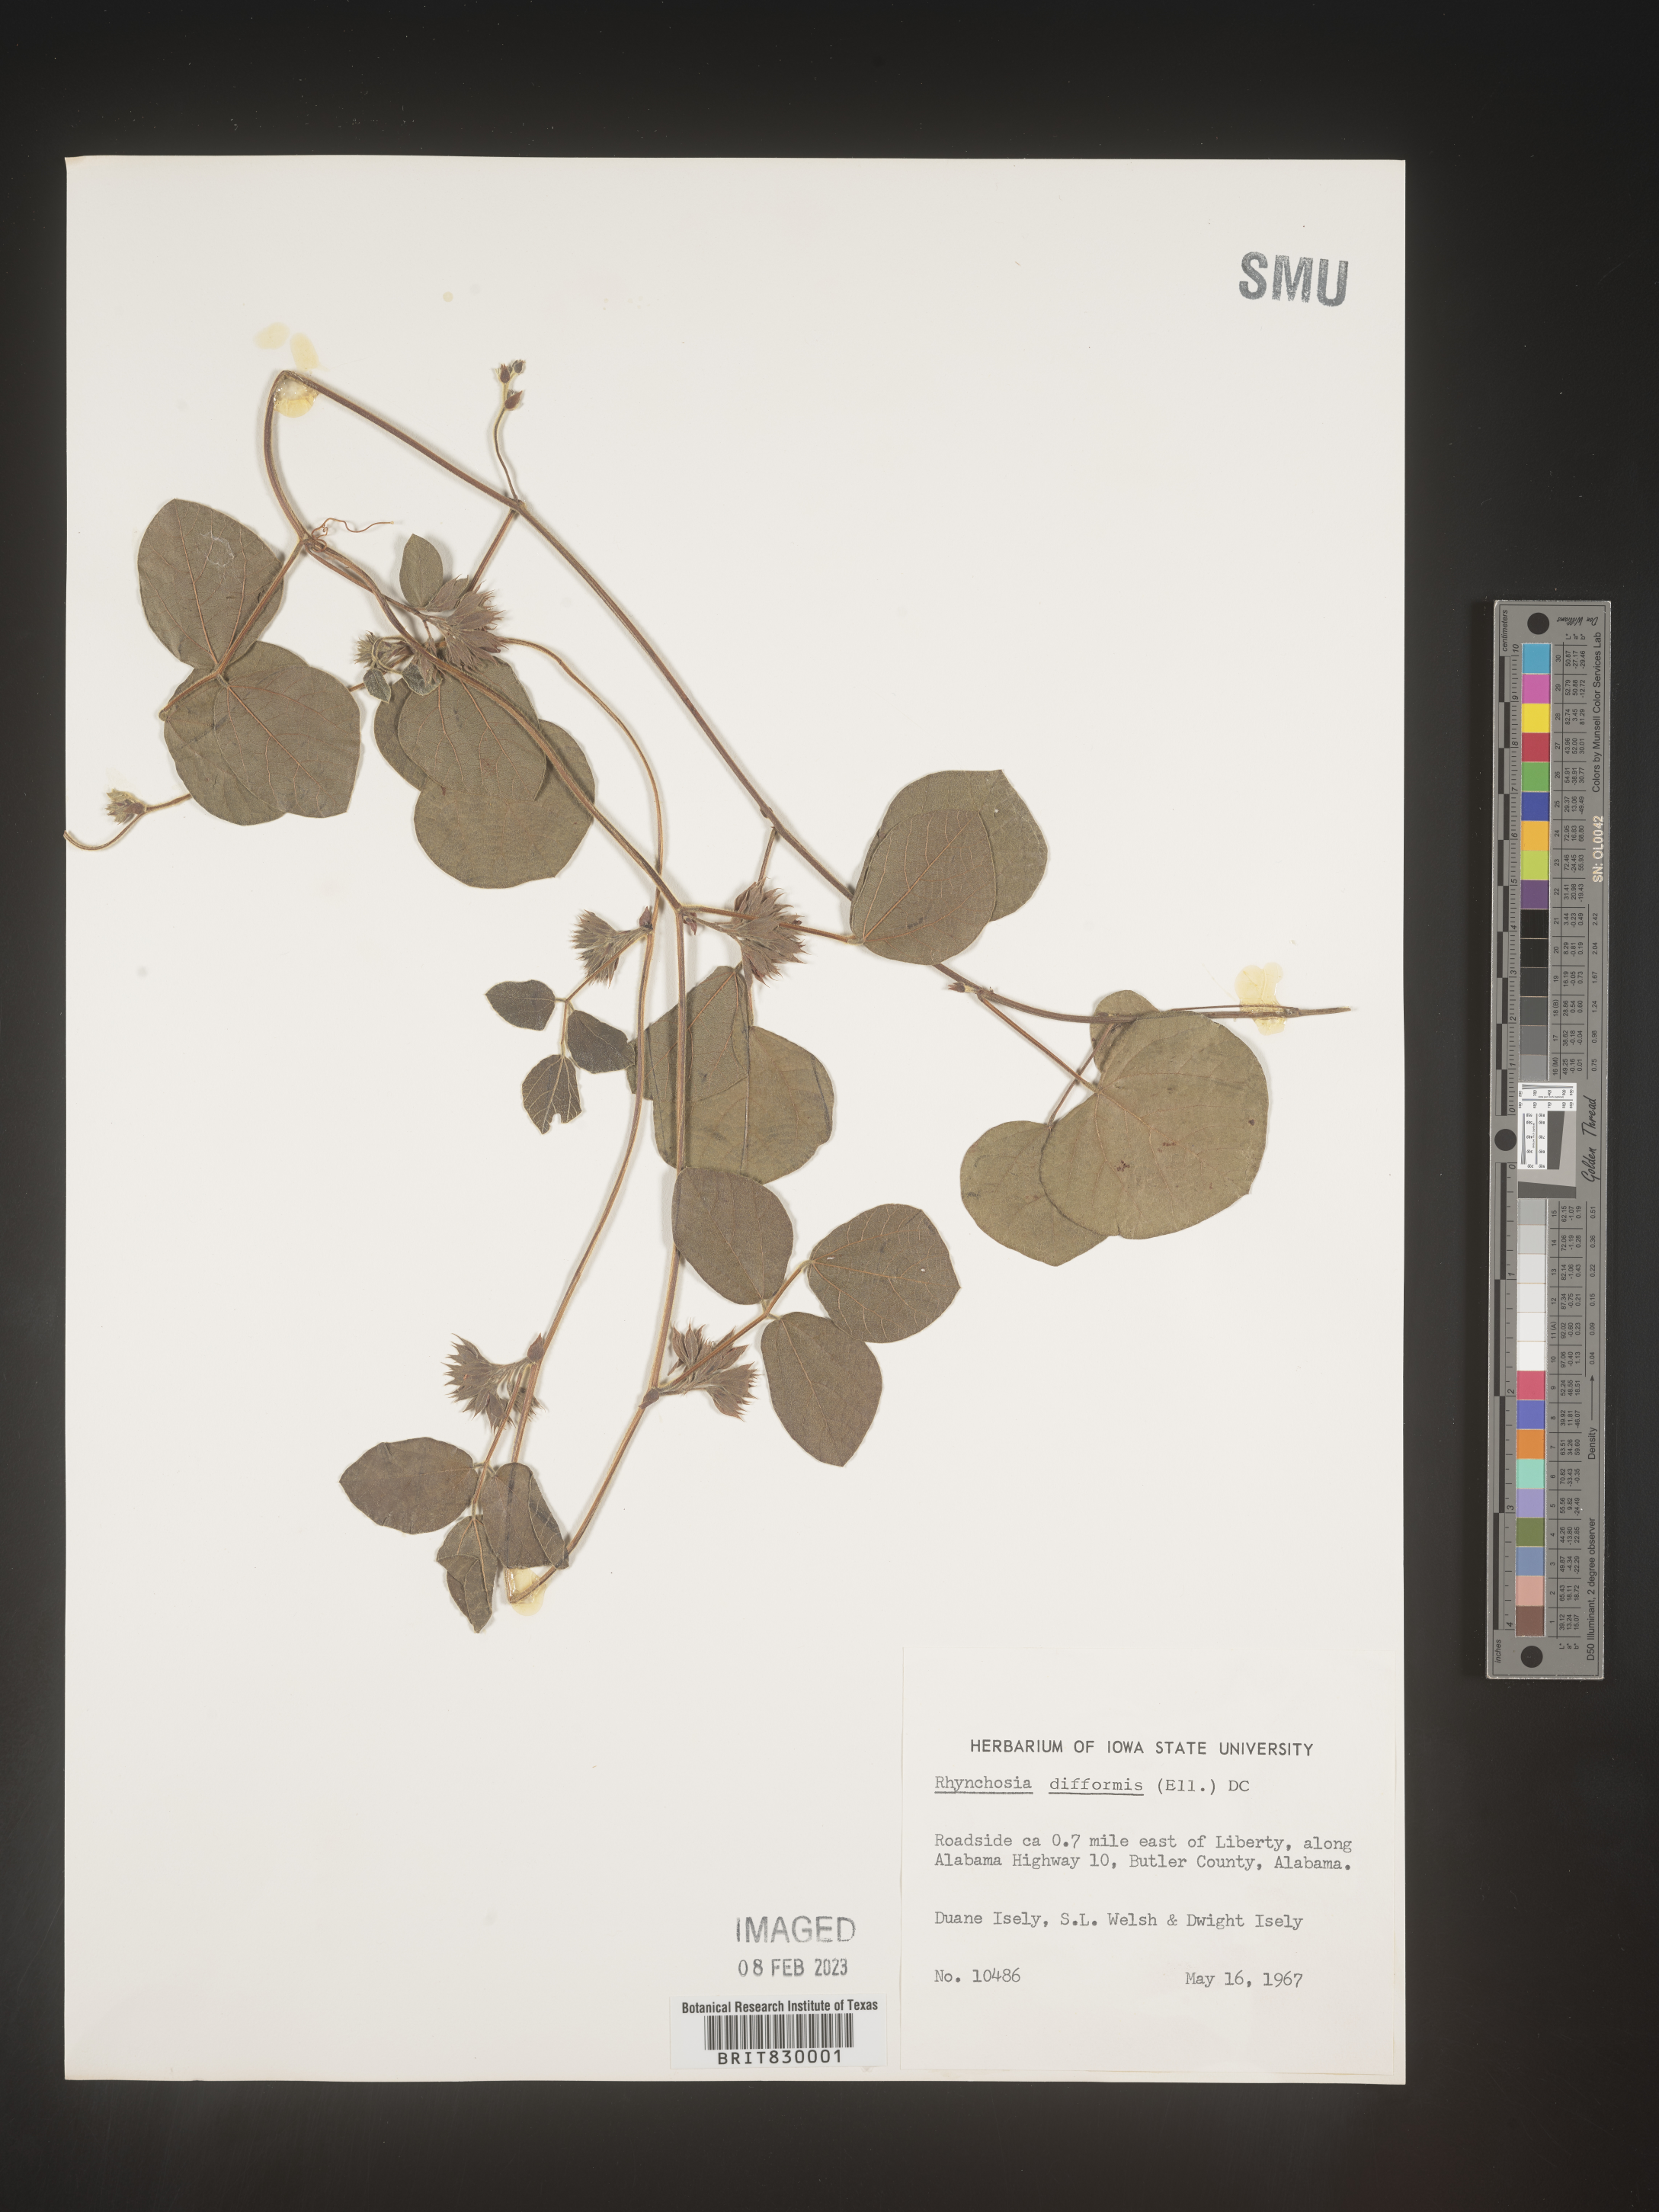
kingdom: Plantae
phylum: Tracheophyta
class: Magnoliopsida
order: Fabales
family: Fabaceae
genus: Rhynchosia
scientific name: Rhynchosia difformis
